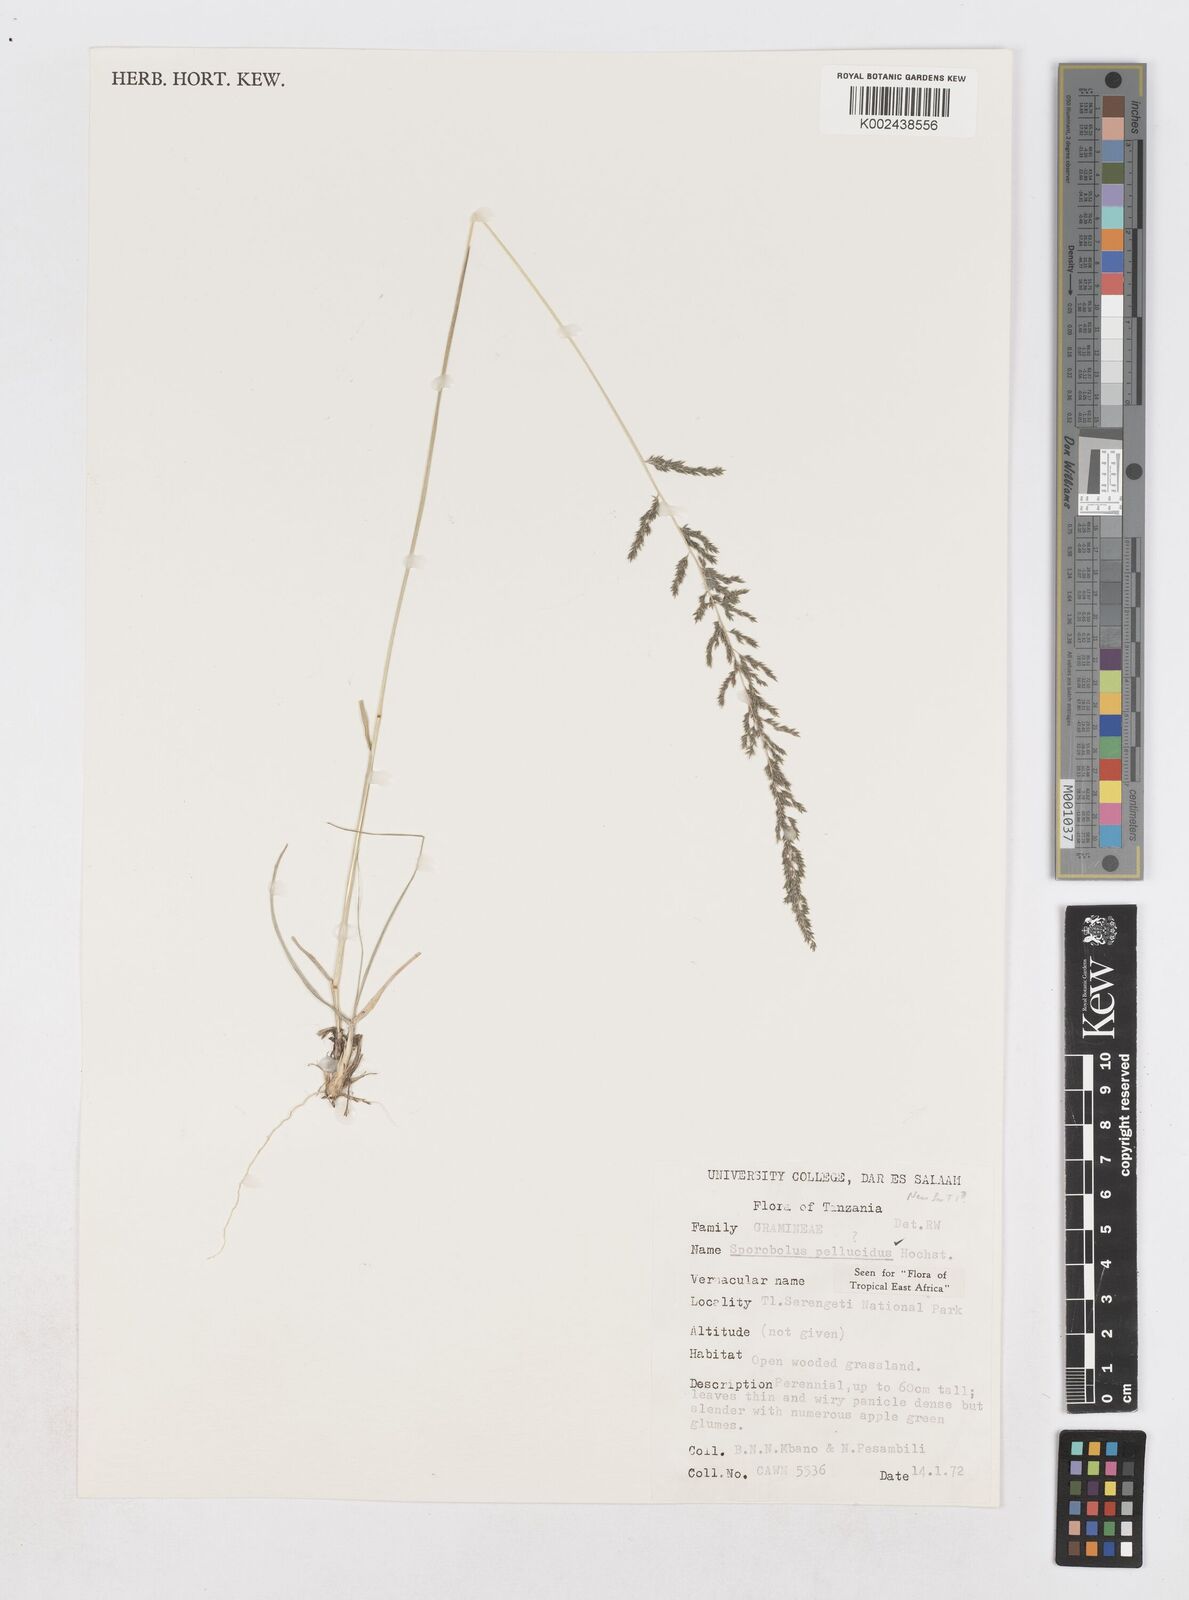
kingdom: Plantae
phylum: Tracheophyta
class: Liliopsida
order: Poales
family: Poaceae
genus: Sporobolus
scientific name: Sporobolus pellucidus
